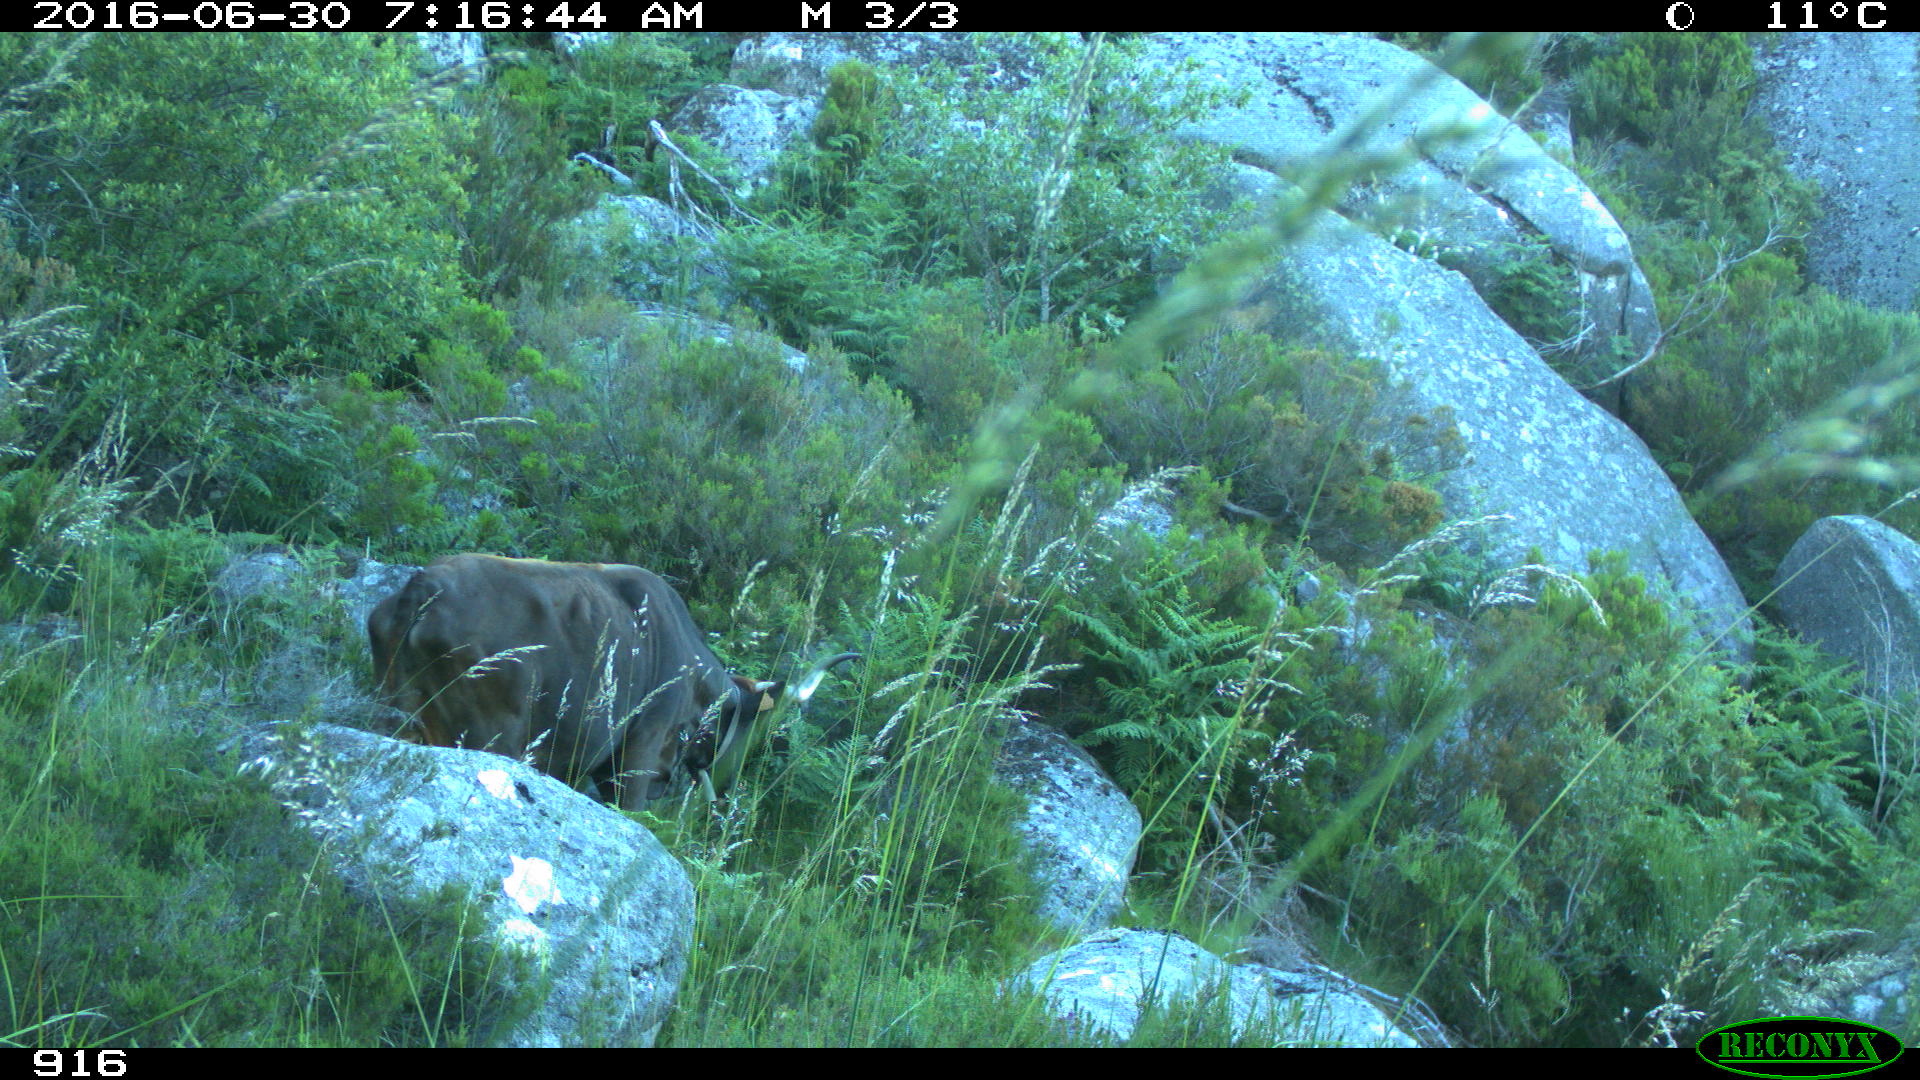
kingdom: Animalia
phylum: Chordata
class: Mammalia
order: Artiodactyla
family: Bovidae
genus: Bos
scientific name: Bos taurus
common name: Domesticated cattle
